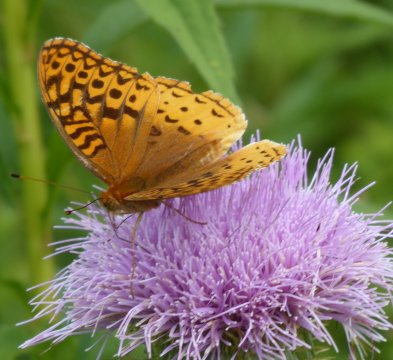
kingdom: Animalia
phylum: Arthropoda
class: Insecta
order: Lepidoptera
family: Nymphalidae
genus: Speyeria
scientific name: Speyeria cybele
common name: Great Spangled Fritillary
